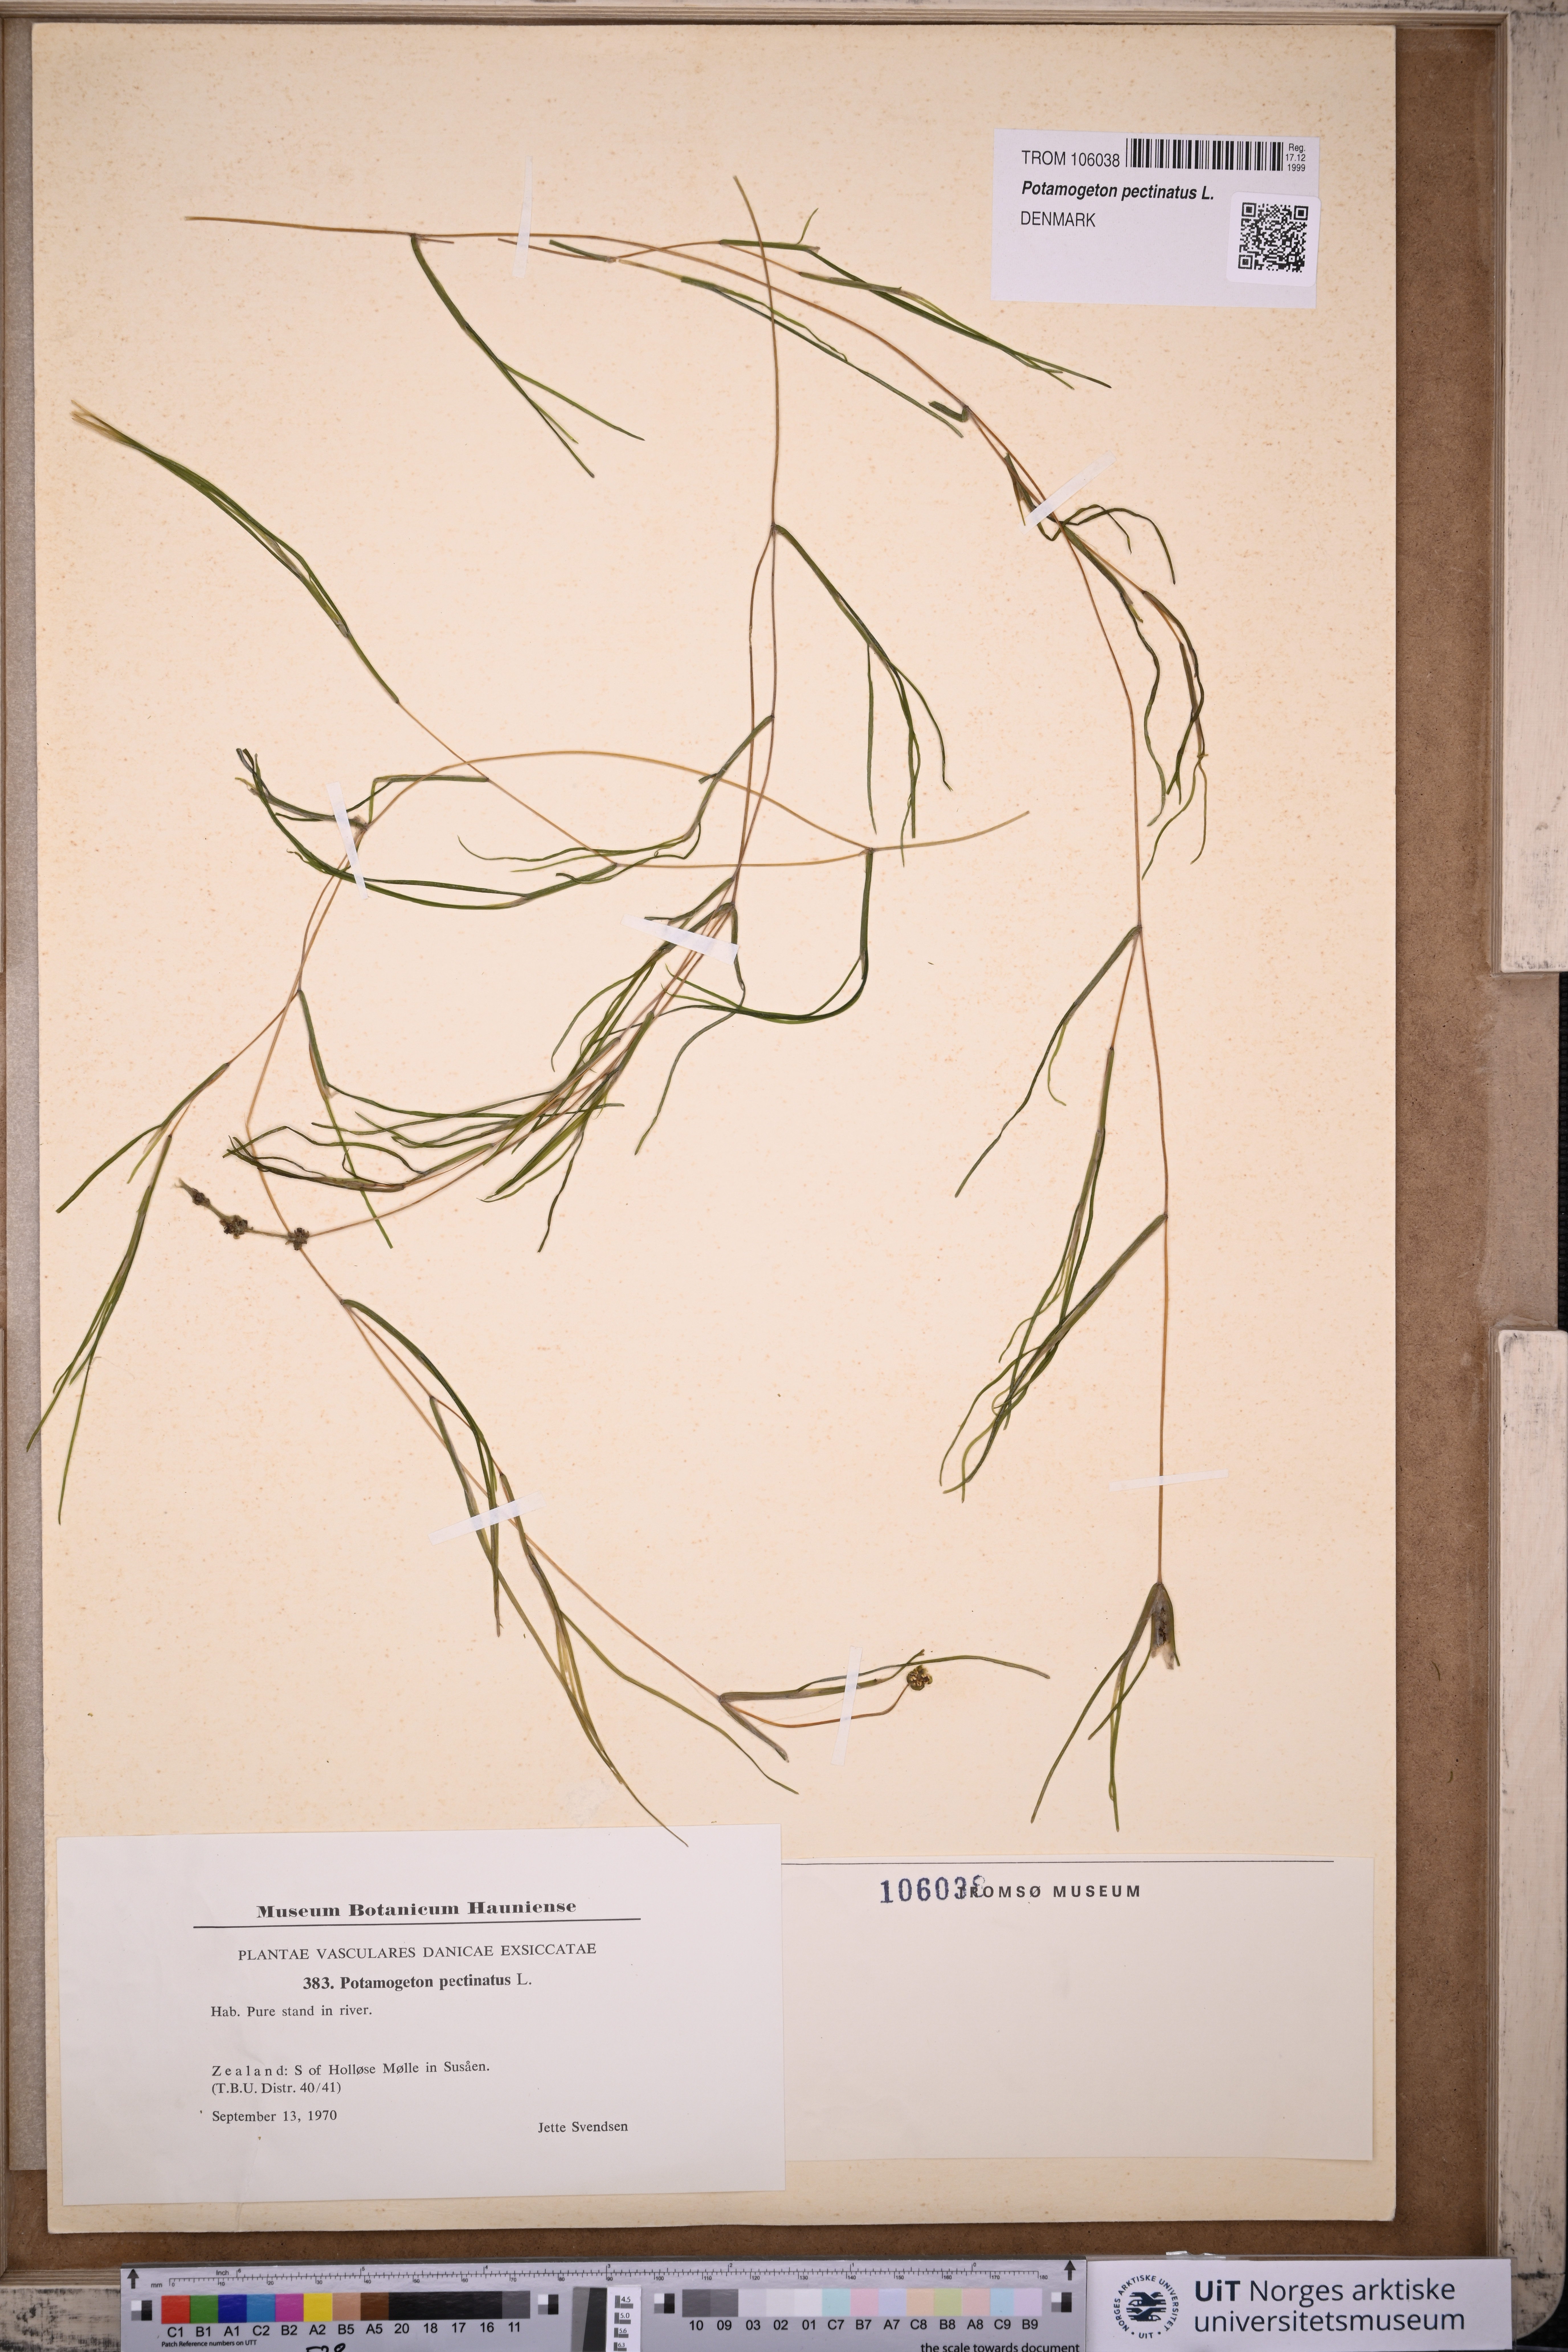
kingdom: Plantae
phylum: Tracheophyta
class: Liliopsida
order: Alismatales
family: Potamogetonaceae
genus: Stuckenia
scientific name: Stuckenia pectinata
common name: Sago pondweed
